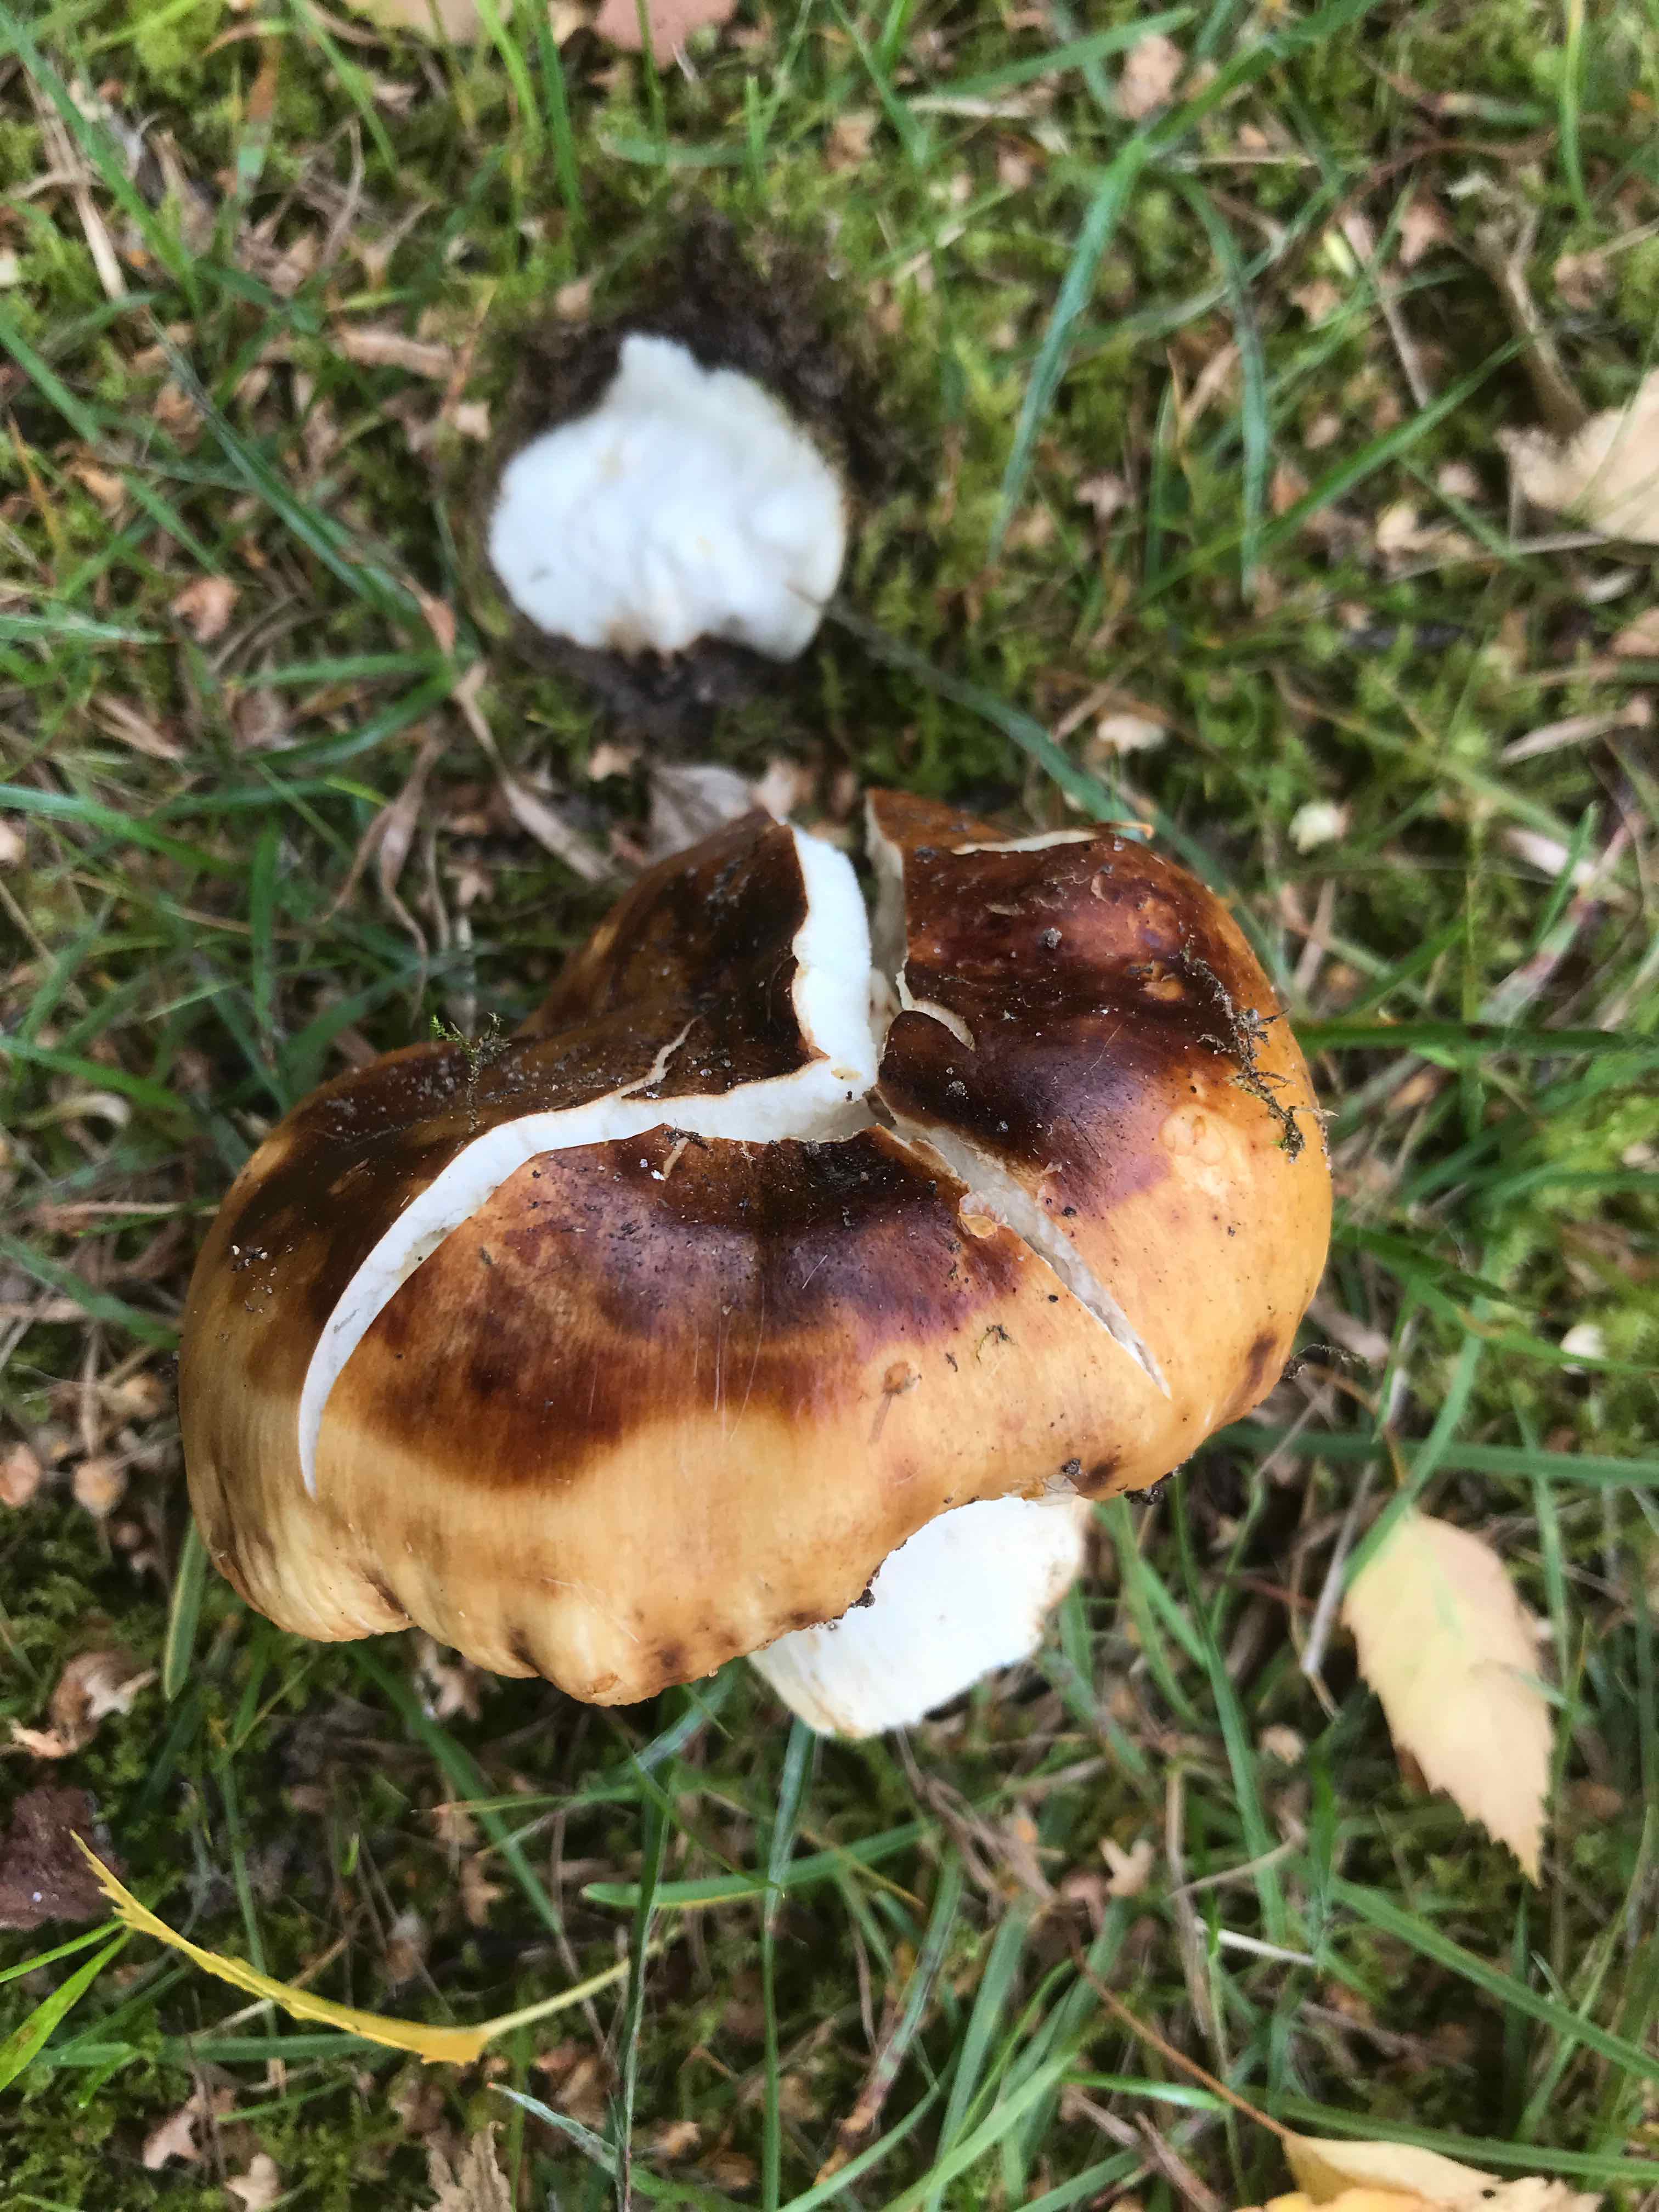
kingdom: Fungi
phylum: Basidiomycota
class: Agaricomycetes
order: Russulales
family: Russulaceae
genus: Russula
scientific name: Russula foetens
